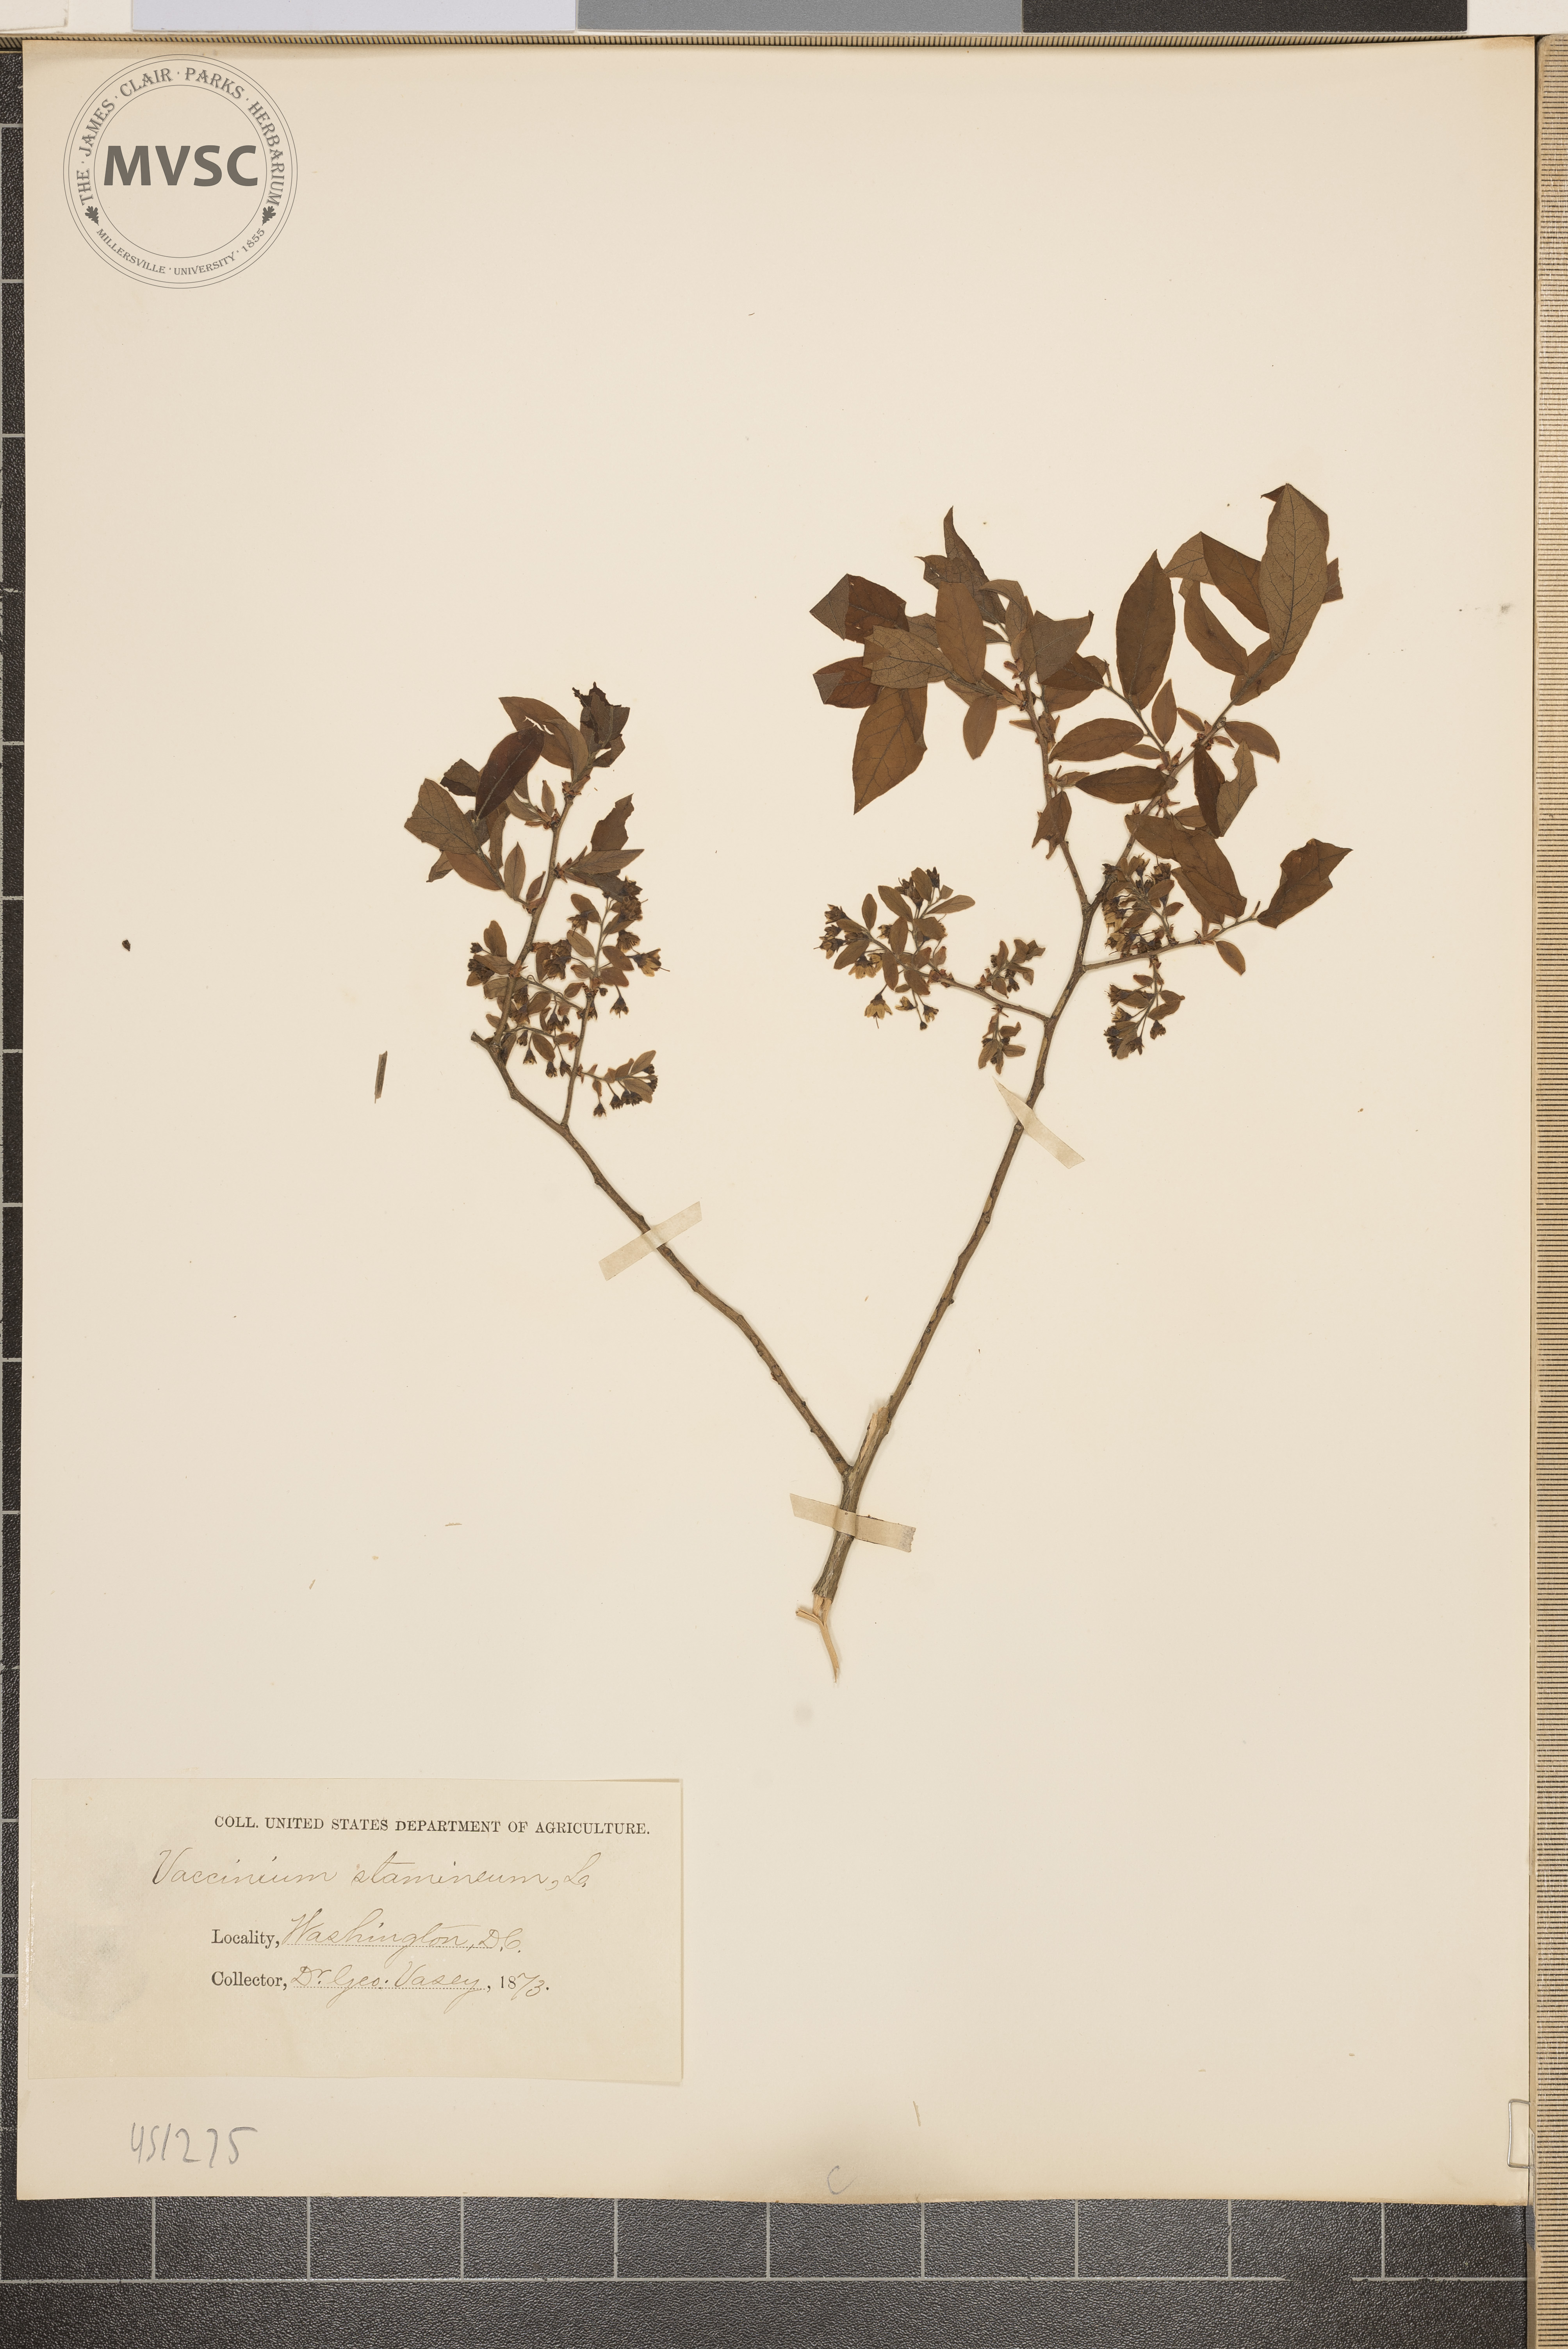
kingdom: Plantae
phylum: Tracheophyta
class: Magnoliopsida
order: Ericales
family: Ericaceae
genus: Vaccinium
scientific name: Vaccinium stamineum
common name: Deerberry
